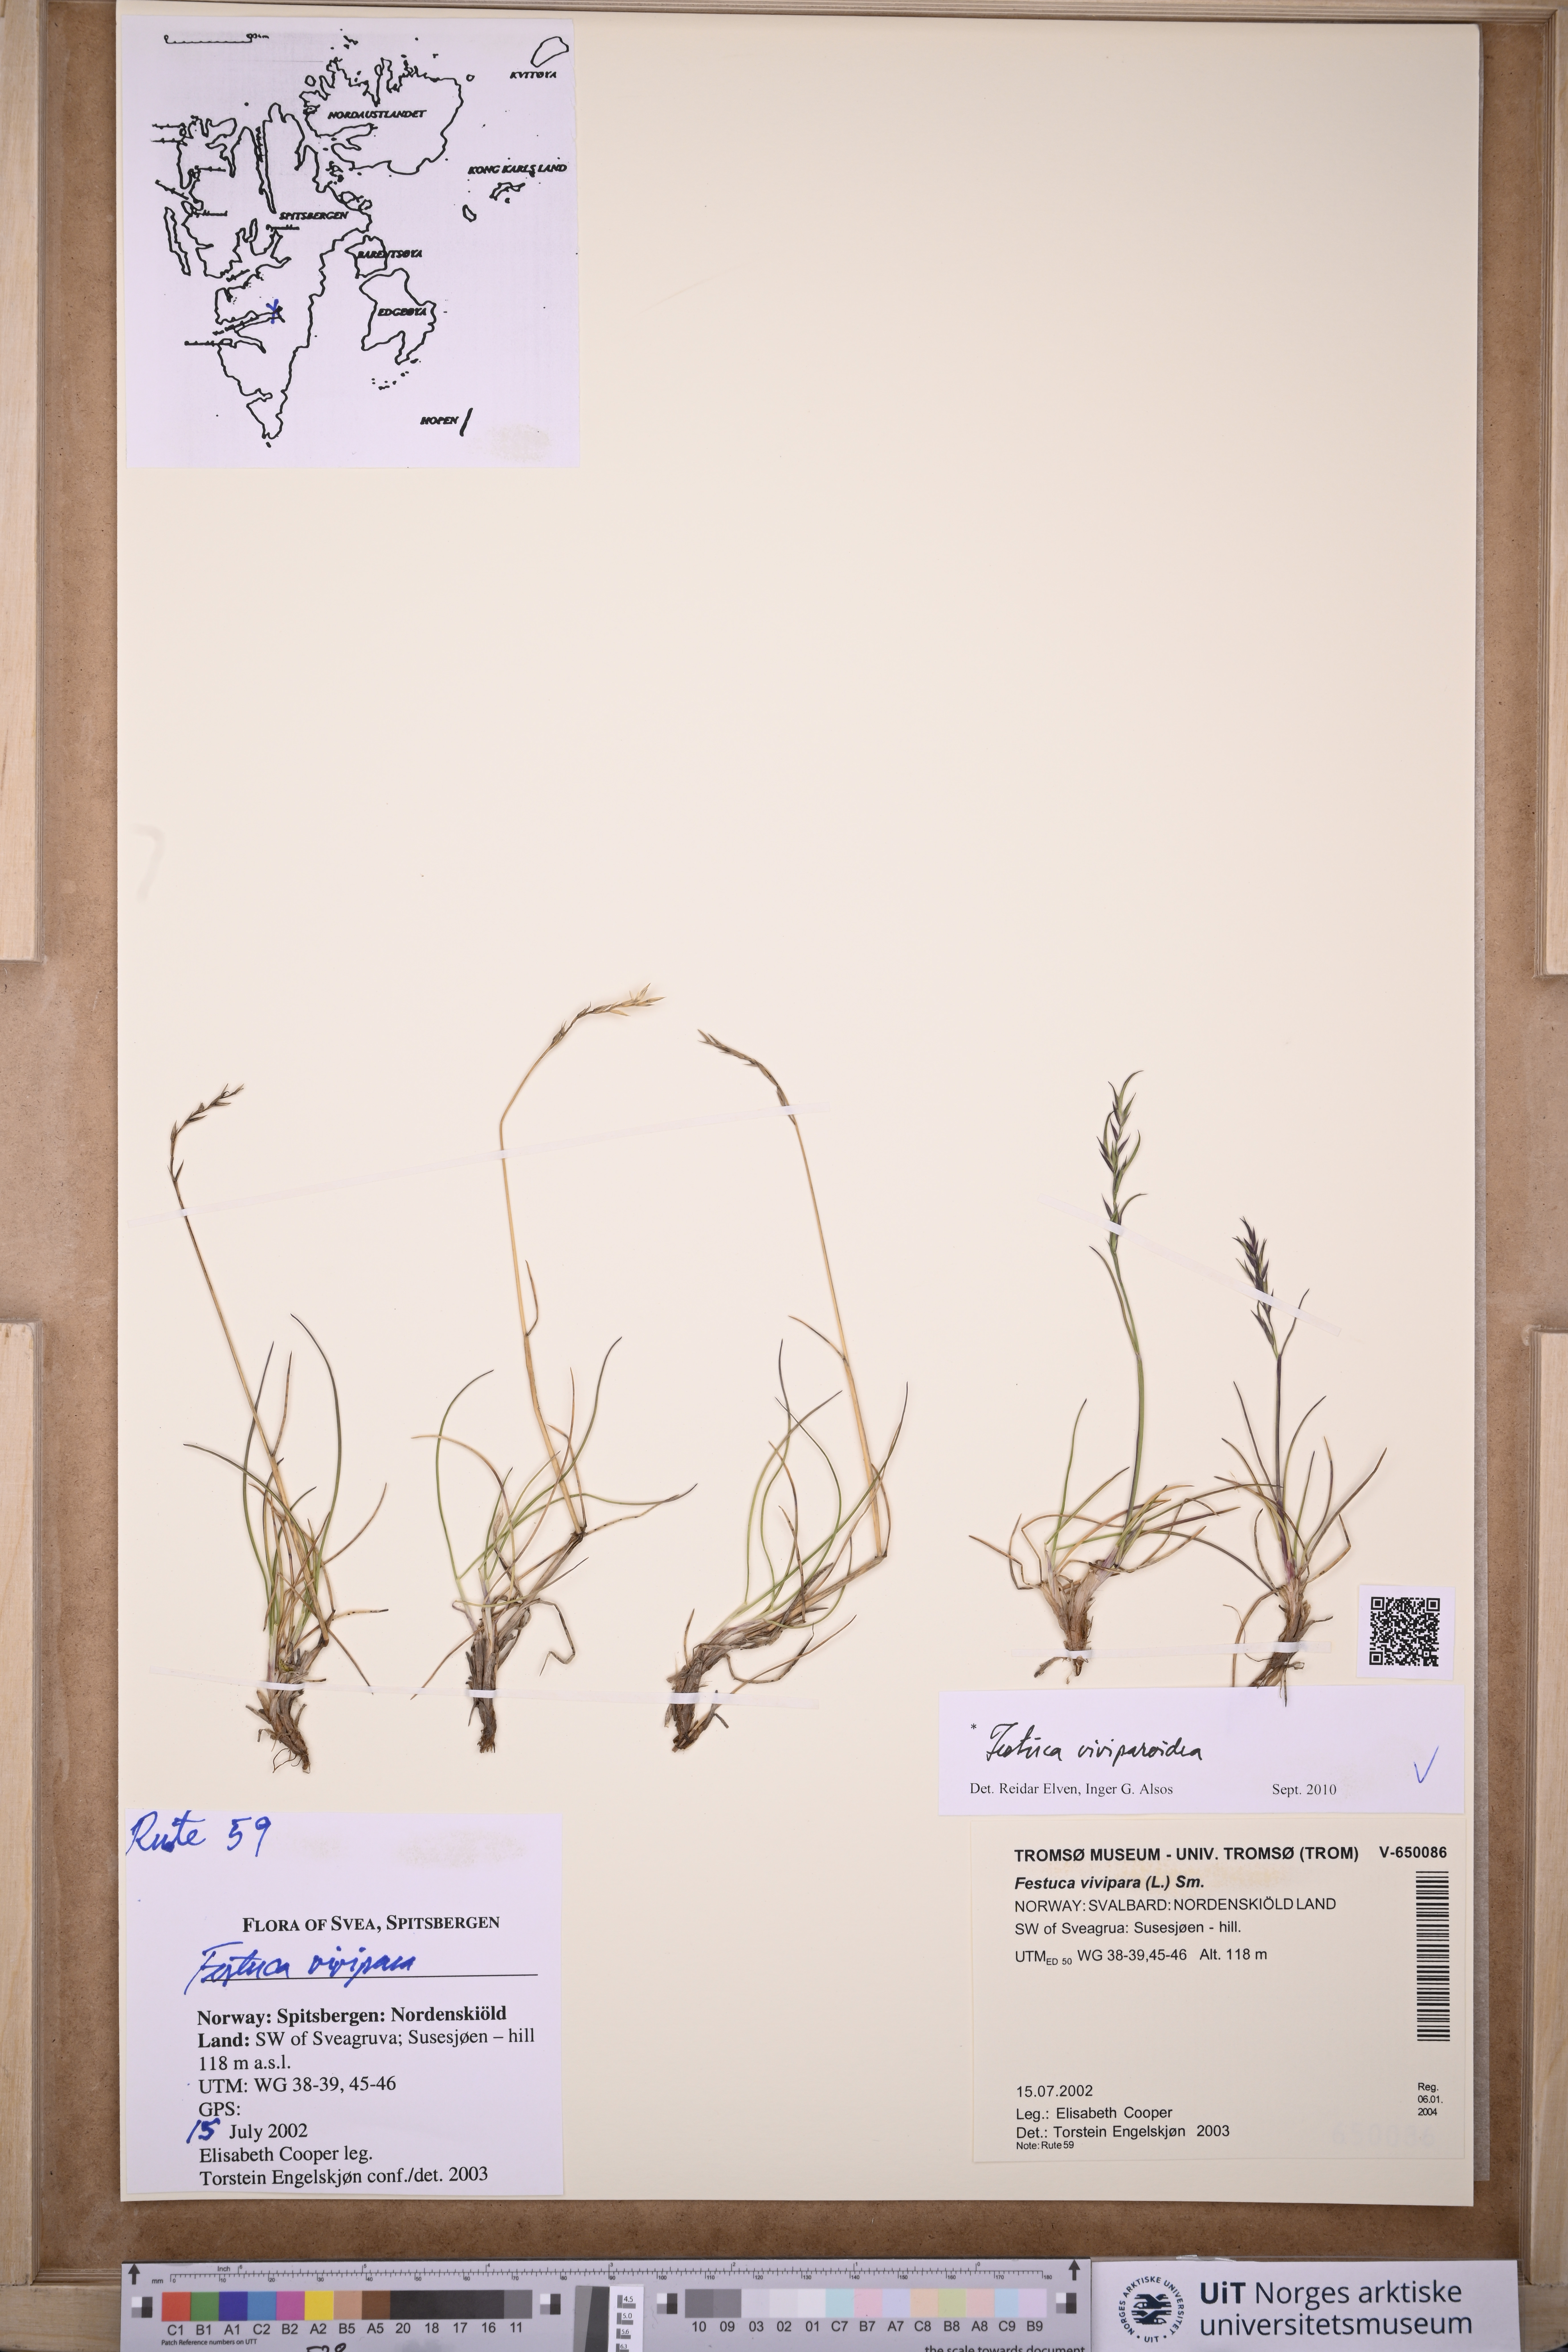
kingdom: Plantae
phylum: Tracheophyta
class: Liliopsida
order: Poales
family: Poaceae
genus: Festuca
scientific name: Festuca viviparoidea
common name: Northern fescue
